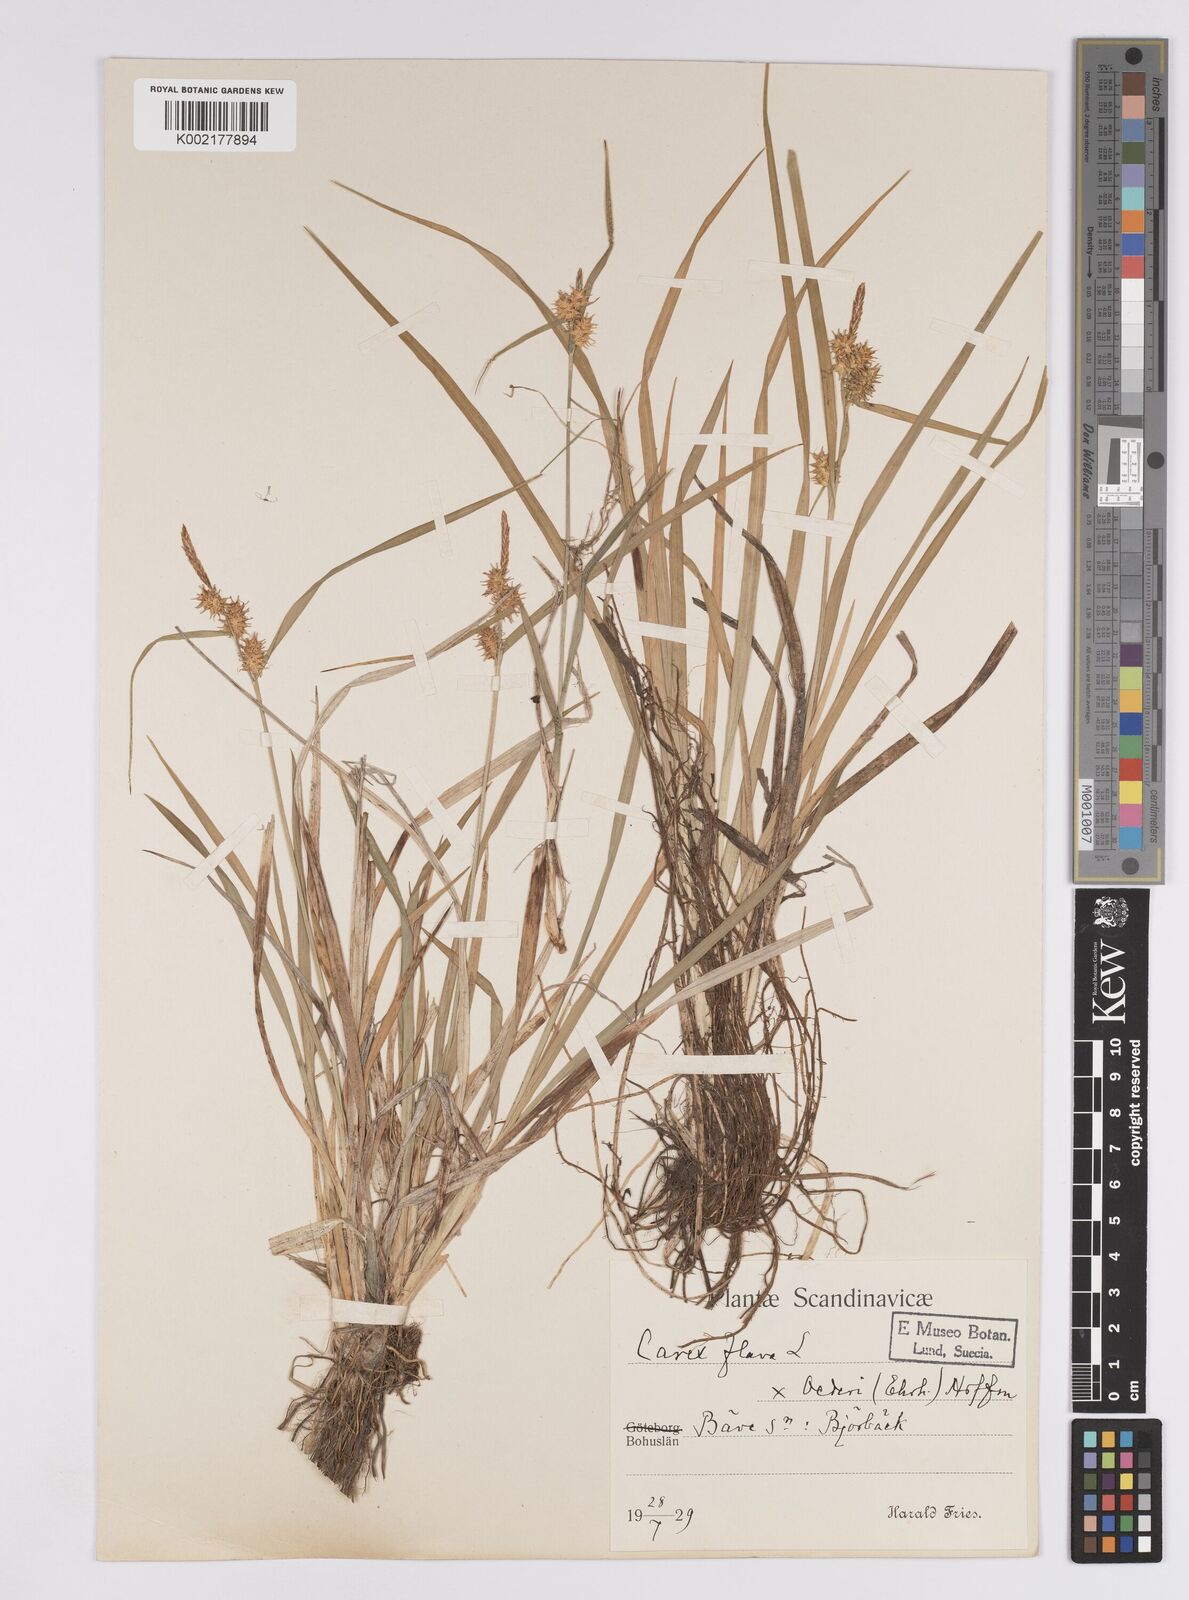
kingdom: Plantae
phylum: Tracheophyta
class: Liliopsida
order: Poales
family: Cyperaceae
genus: Carex
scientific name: Carex flava
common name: Large yellow-sedge
